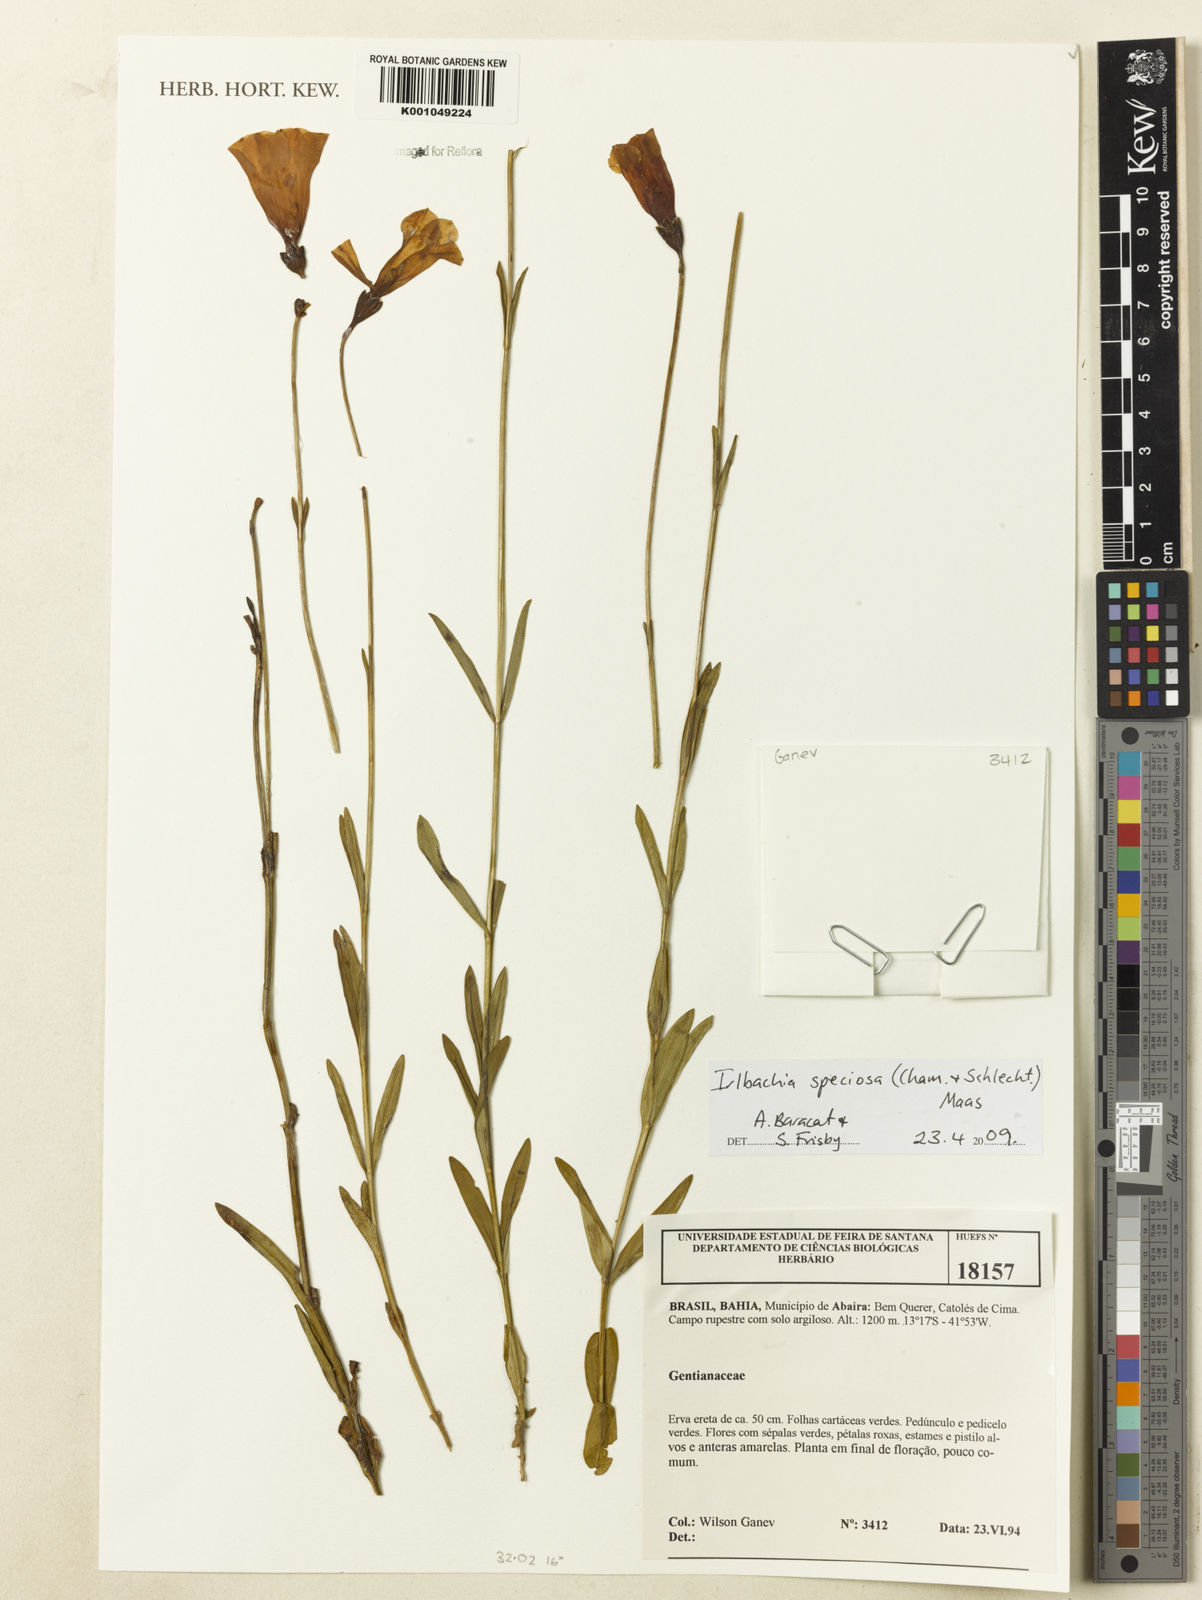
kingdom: Plantae
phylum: Tracheophyta
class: Magnoliopsida
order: Gentianales
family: Gentianaceae
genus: Calolisianthus
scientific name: Calolisianthus speciosus
